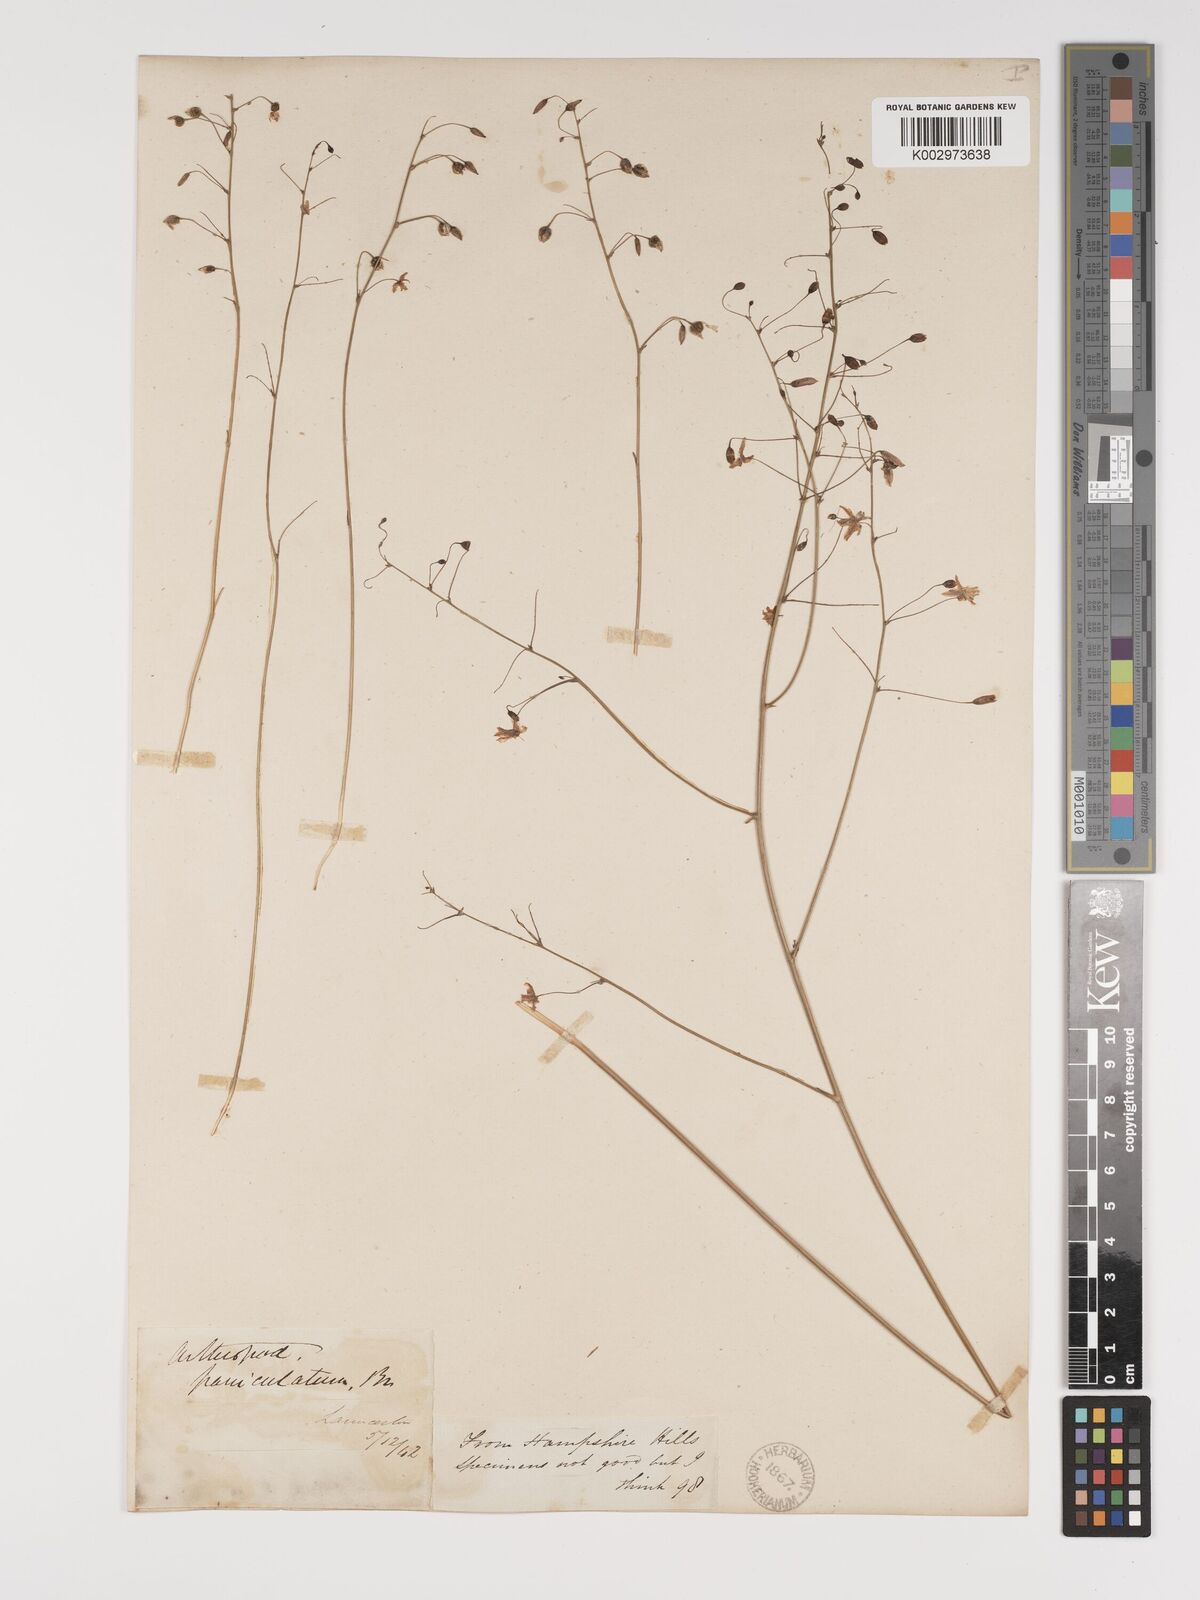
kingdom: Plantae
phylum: Tracheophyta
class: Liliopsida
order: Asparagales
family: Asparagaceae
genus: Arthropodium
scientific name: Arthropodium milleflorum
